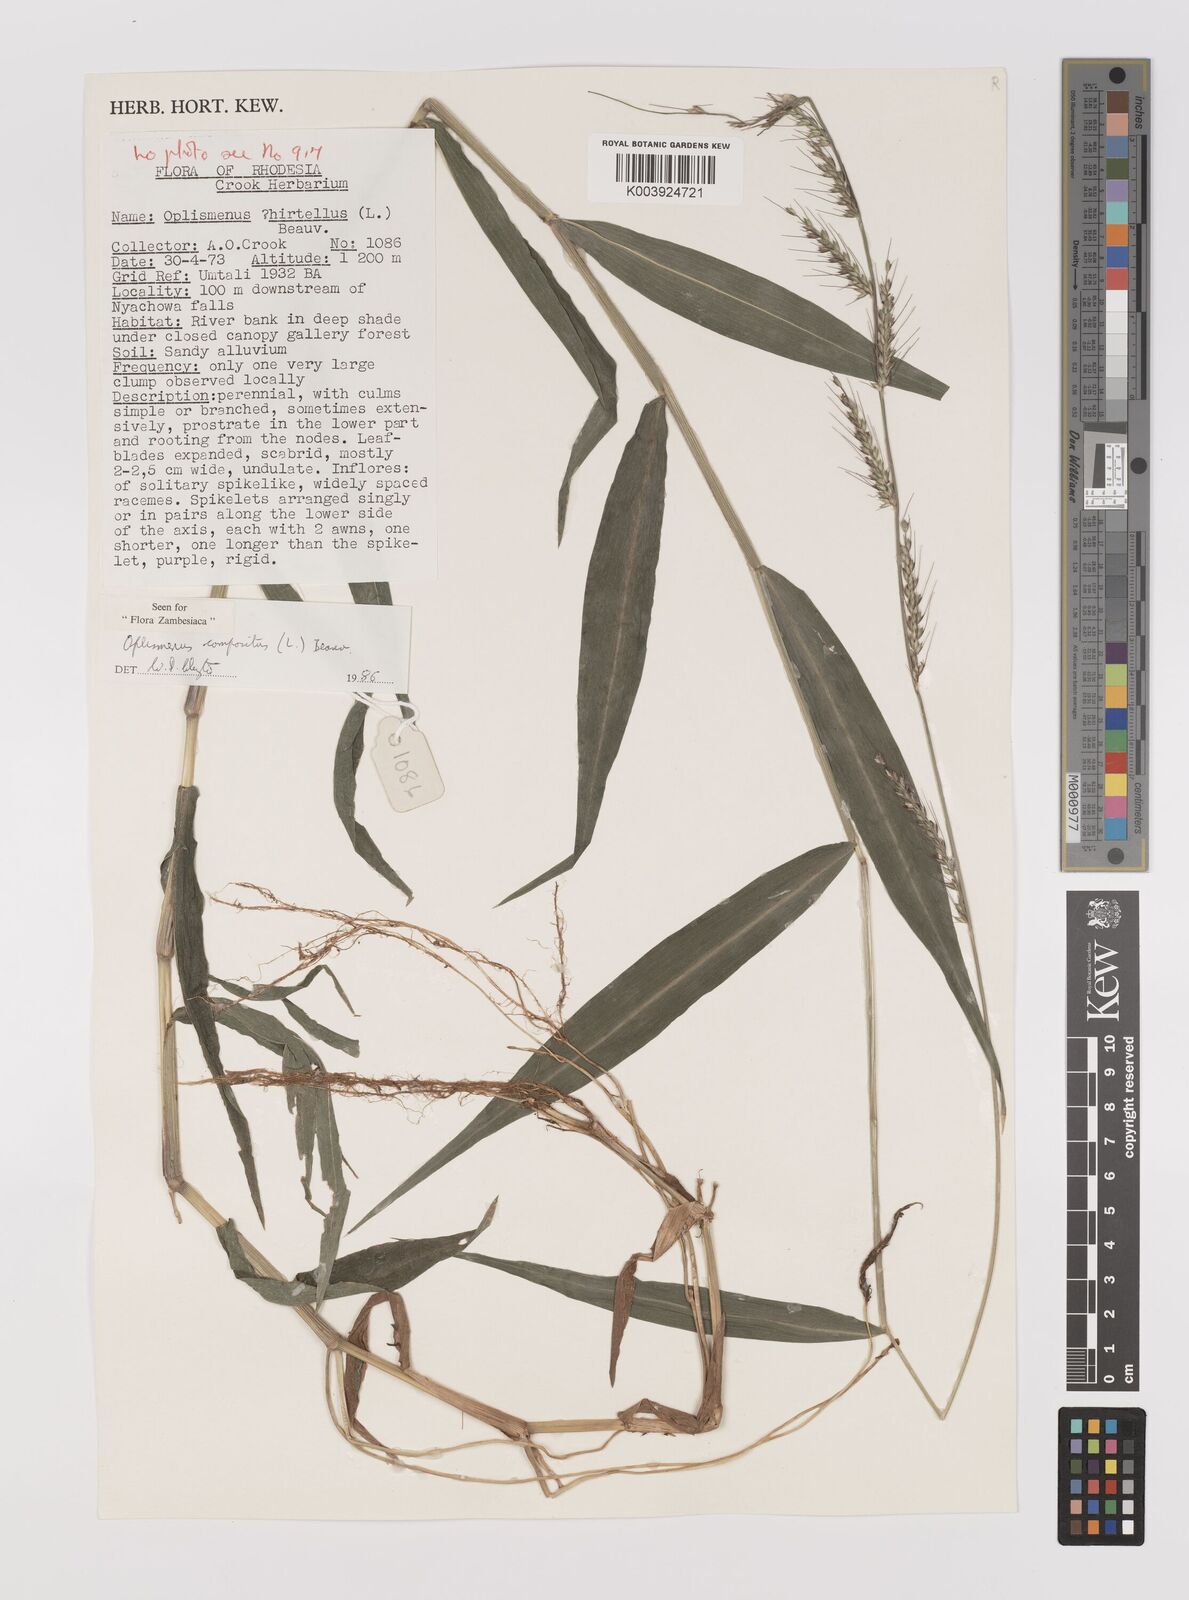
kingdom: Plantae
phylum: Tracheophyta
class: Liliopsida
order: Poales
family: Poaceae
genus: Oplismenus
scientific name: Oplismenus compositus
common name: Running mountain grass
